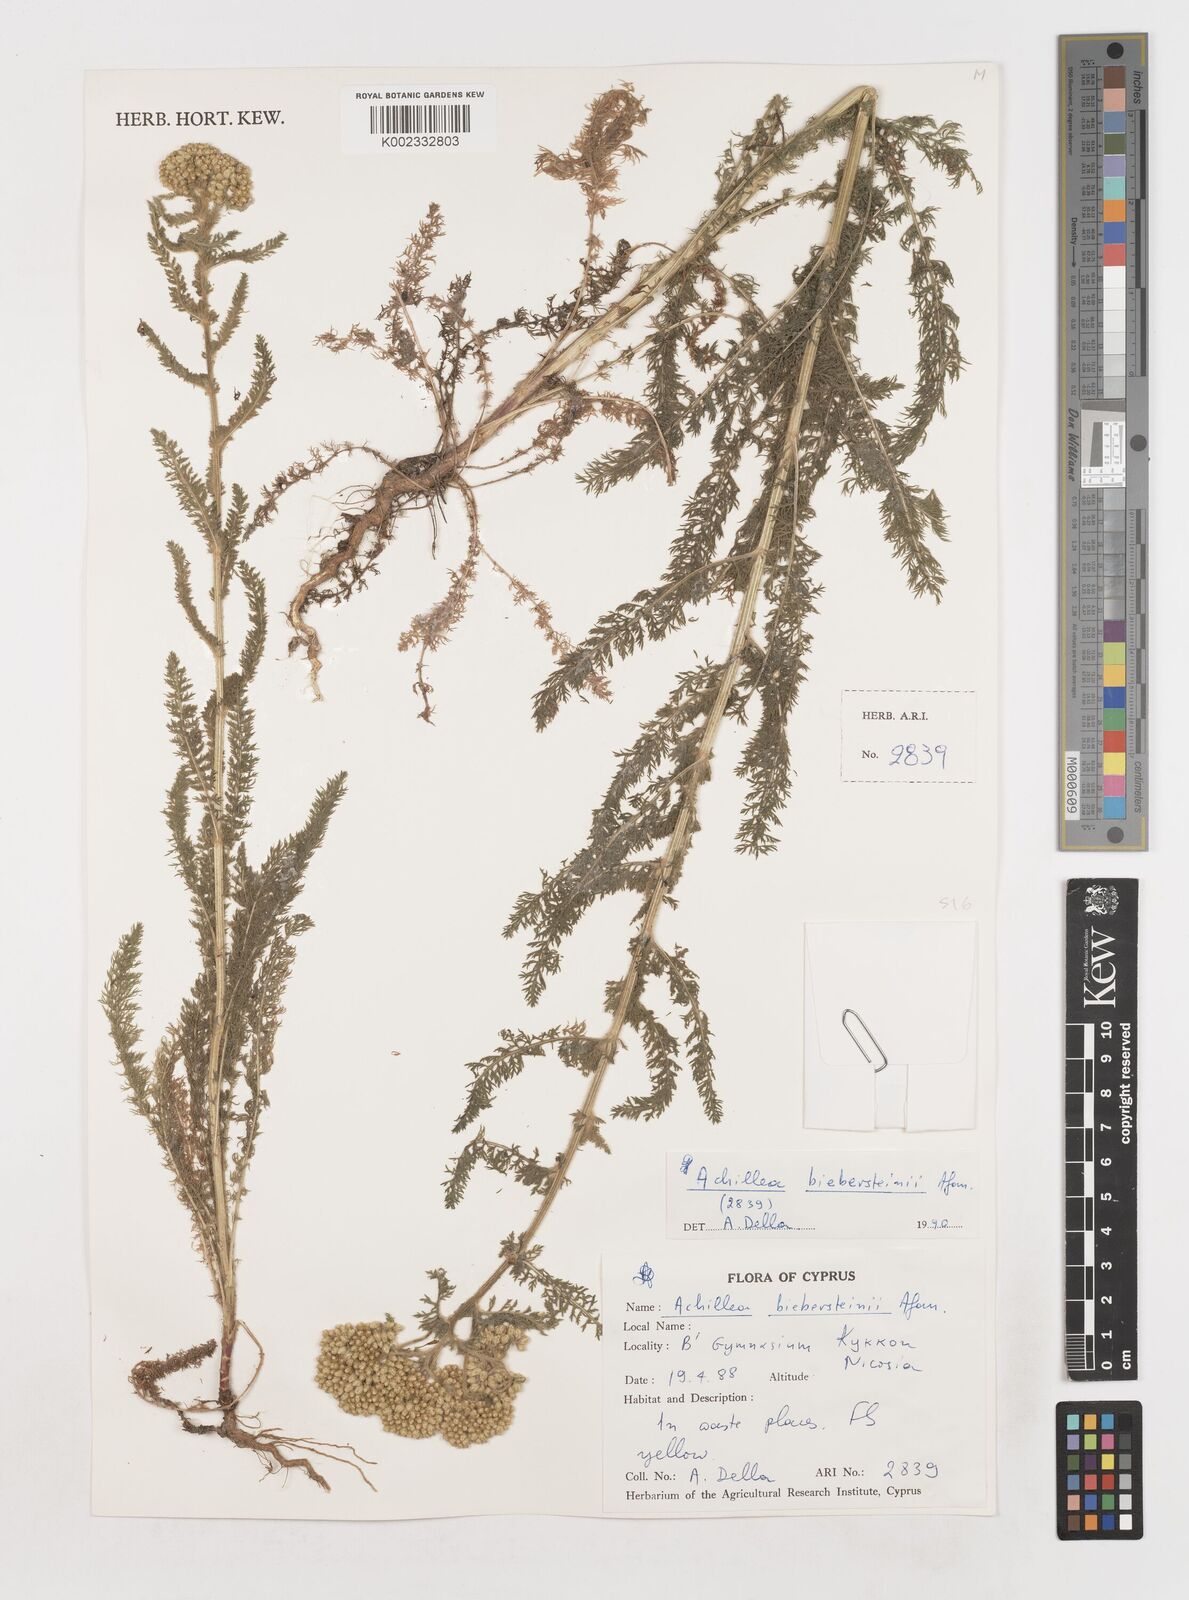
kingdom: Plantae
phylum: Tracheophyta
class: Magnoliopsida
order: Asterales
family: Asteraceae
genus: Achillea
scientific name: Achillea micrantha
